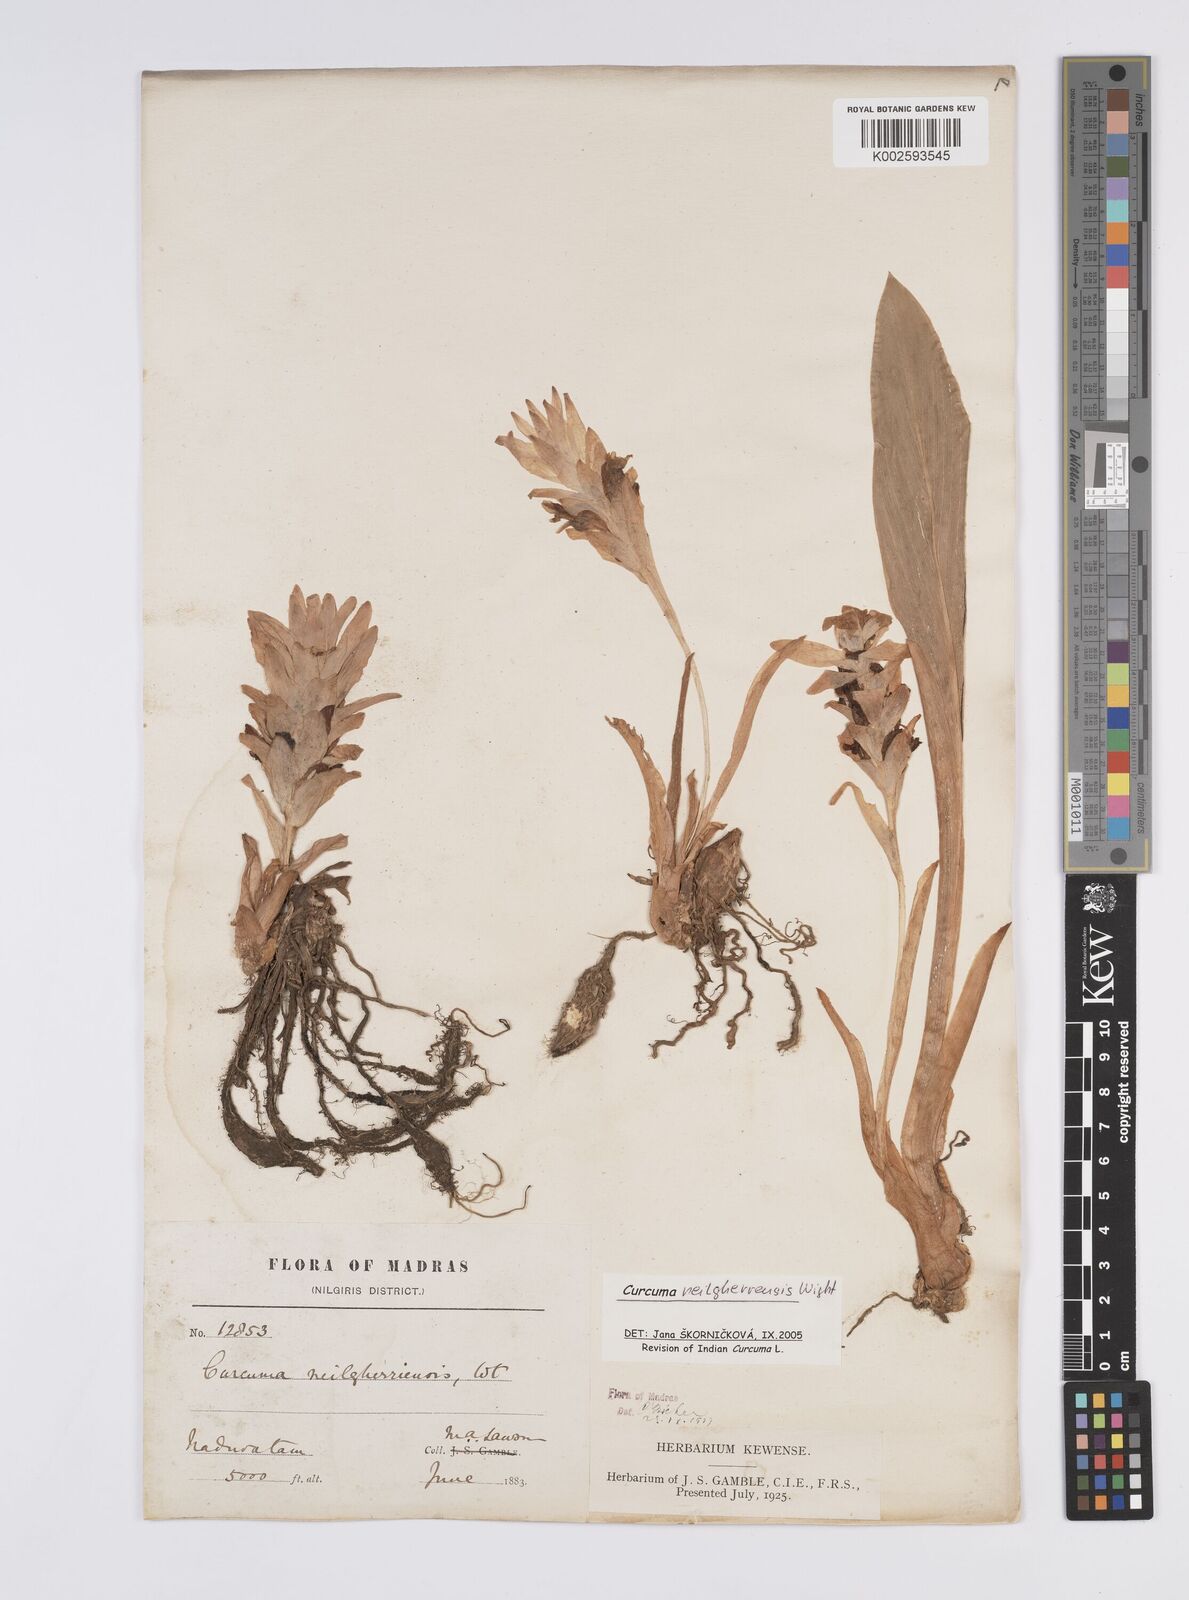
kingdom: Plantae
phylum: Tracheophyta
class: Liliopsida
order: Zingiberales
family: Zingiberaceae
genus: Curcuma
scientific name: Curcuma neilgherrensis
